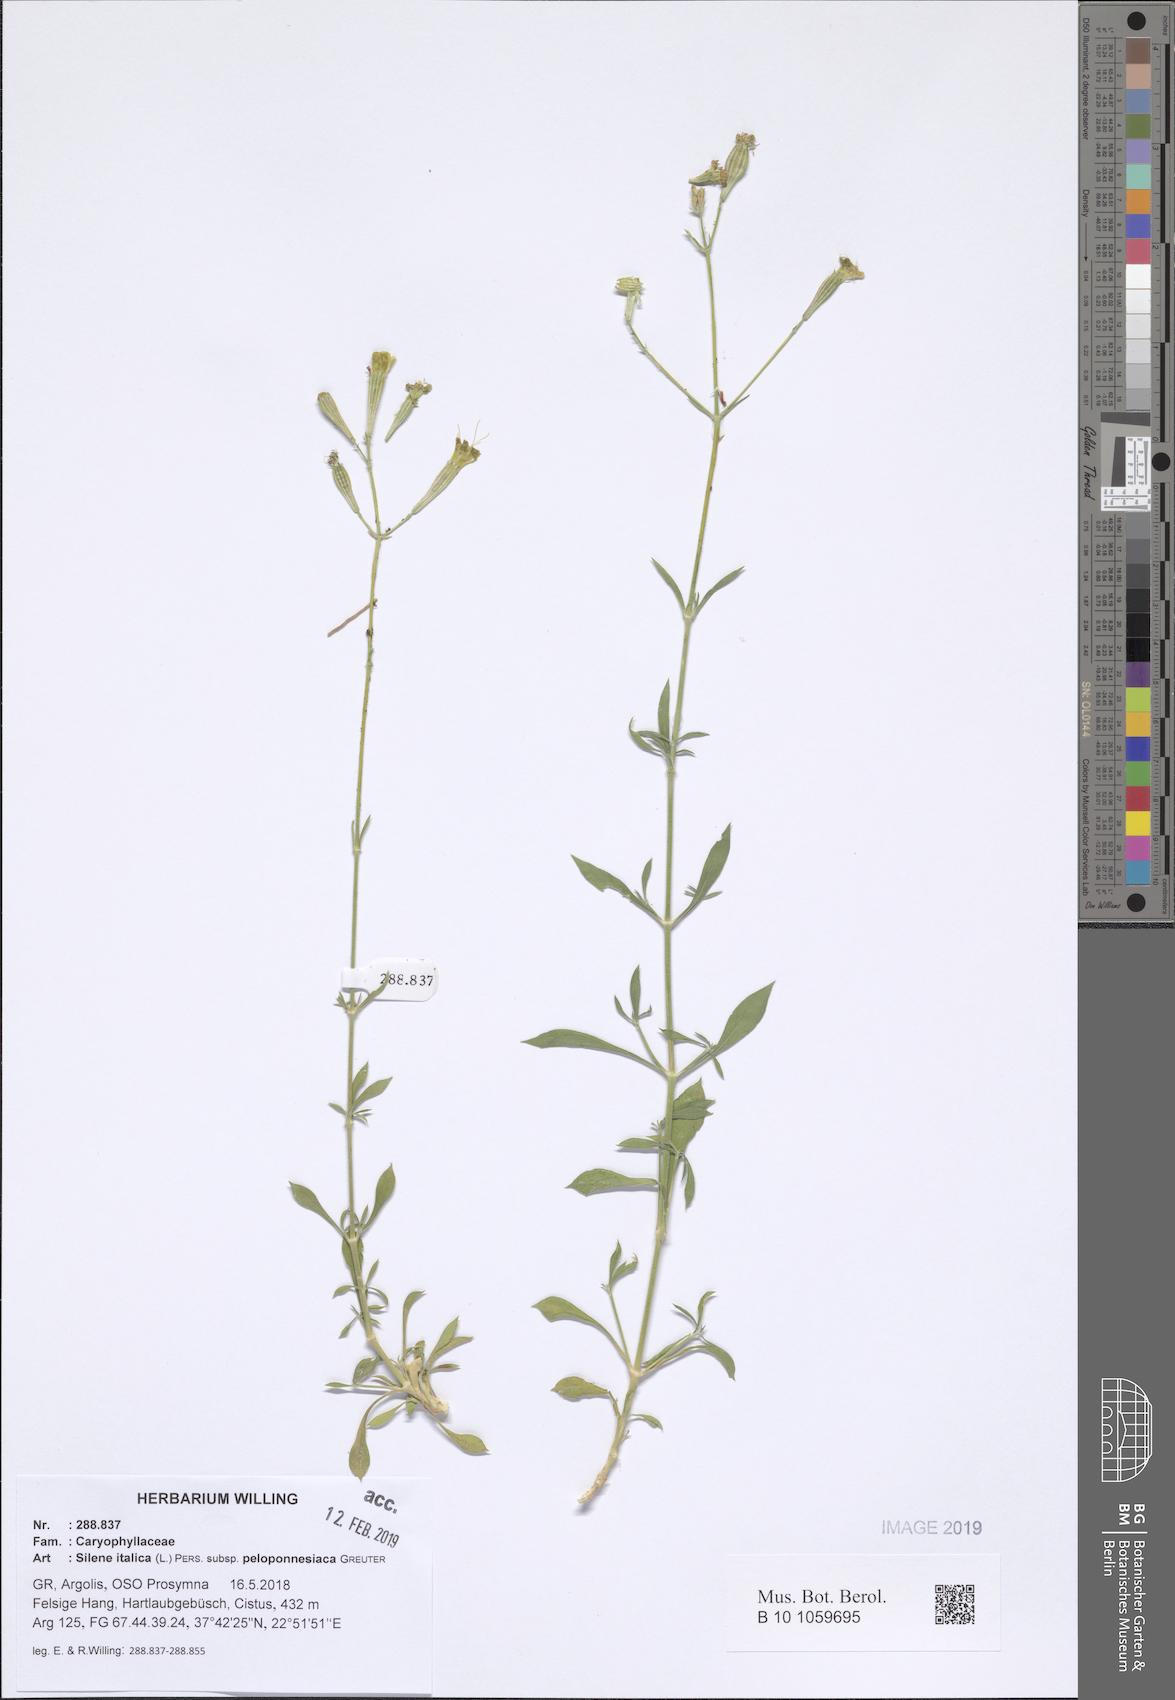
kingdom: Plantae
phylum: Tracheophyta
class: Magnoliopsida
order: Caryophyllales
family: Caryophyllaceae
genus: Silene
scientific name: Silene italica
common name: Italian catchfly
